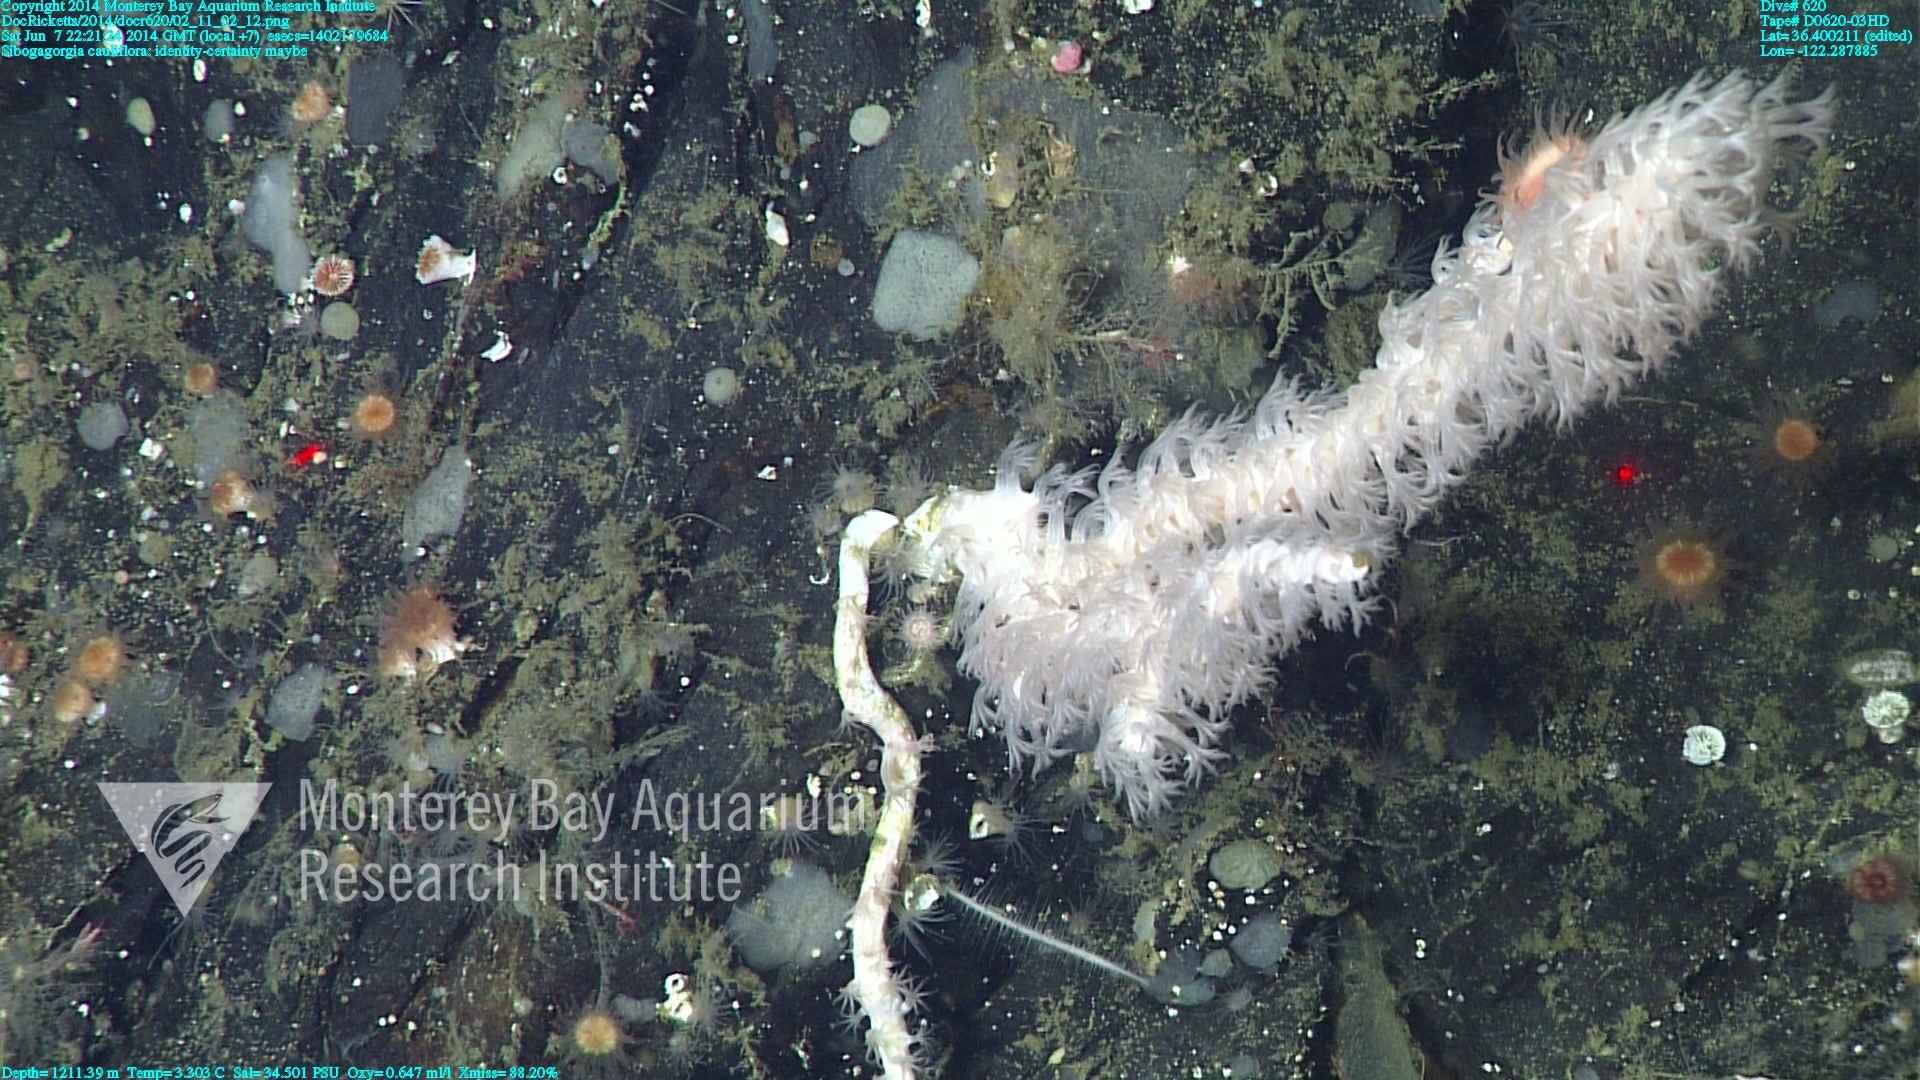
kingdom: Animalia
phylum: Cnidaria
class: Anthozoa
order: Scleralcyonacea
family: Coralliidae
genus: Sibogagorgia
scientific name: Sibogagorgia cauliflora
